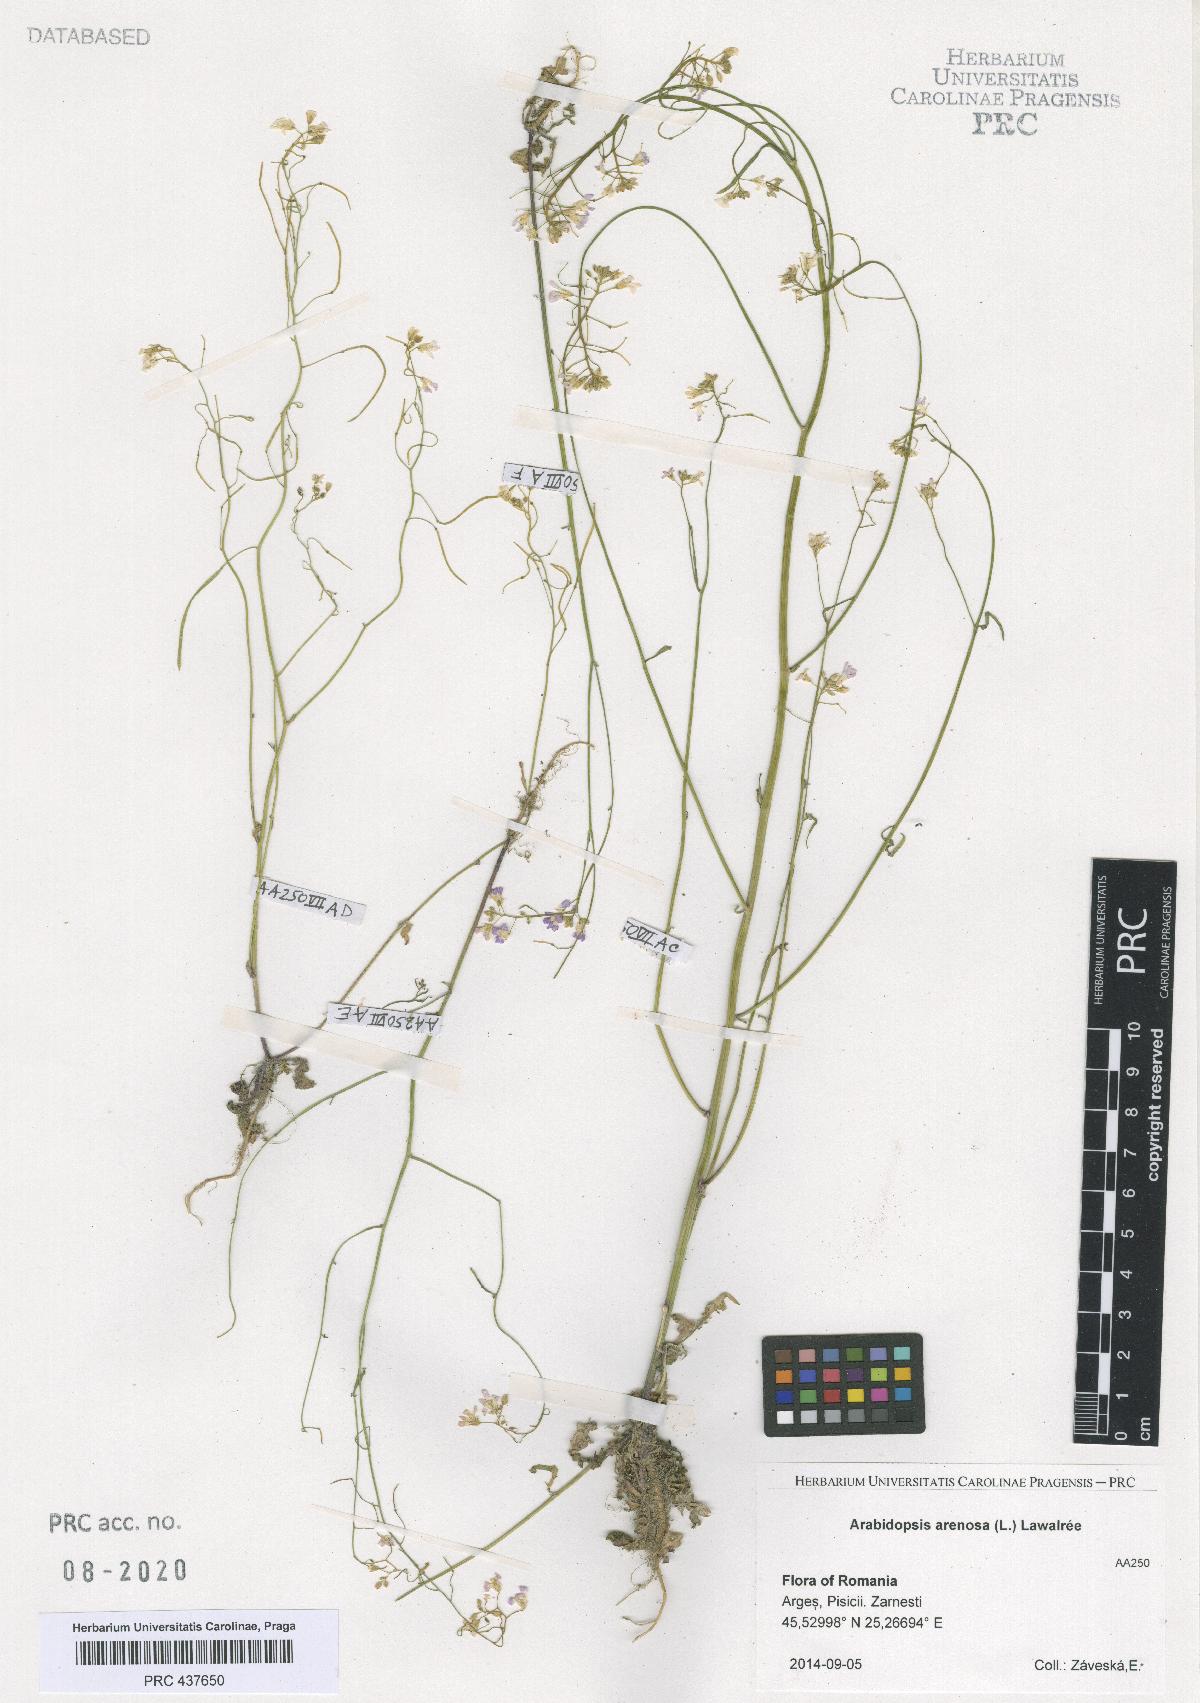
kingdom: Plantae
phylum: Tracheophyta
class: Magnoliopsida
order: Brassicales
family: Brassicaceae
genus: Arabidopsis
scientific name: Arabidopsis arenosa
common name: Sand rock-cress
